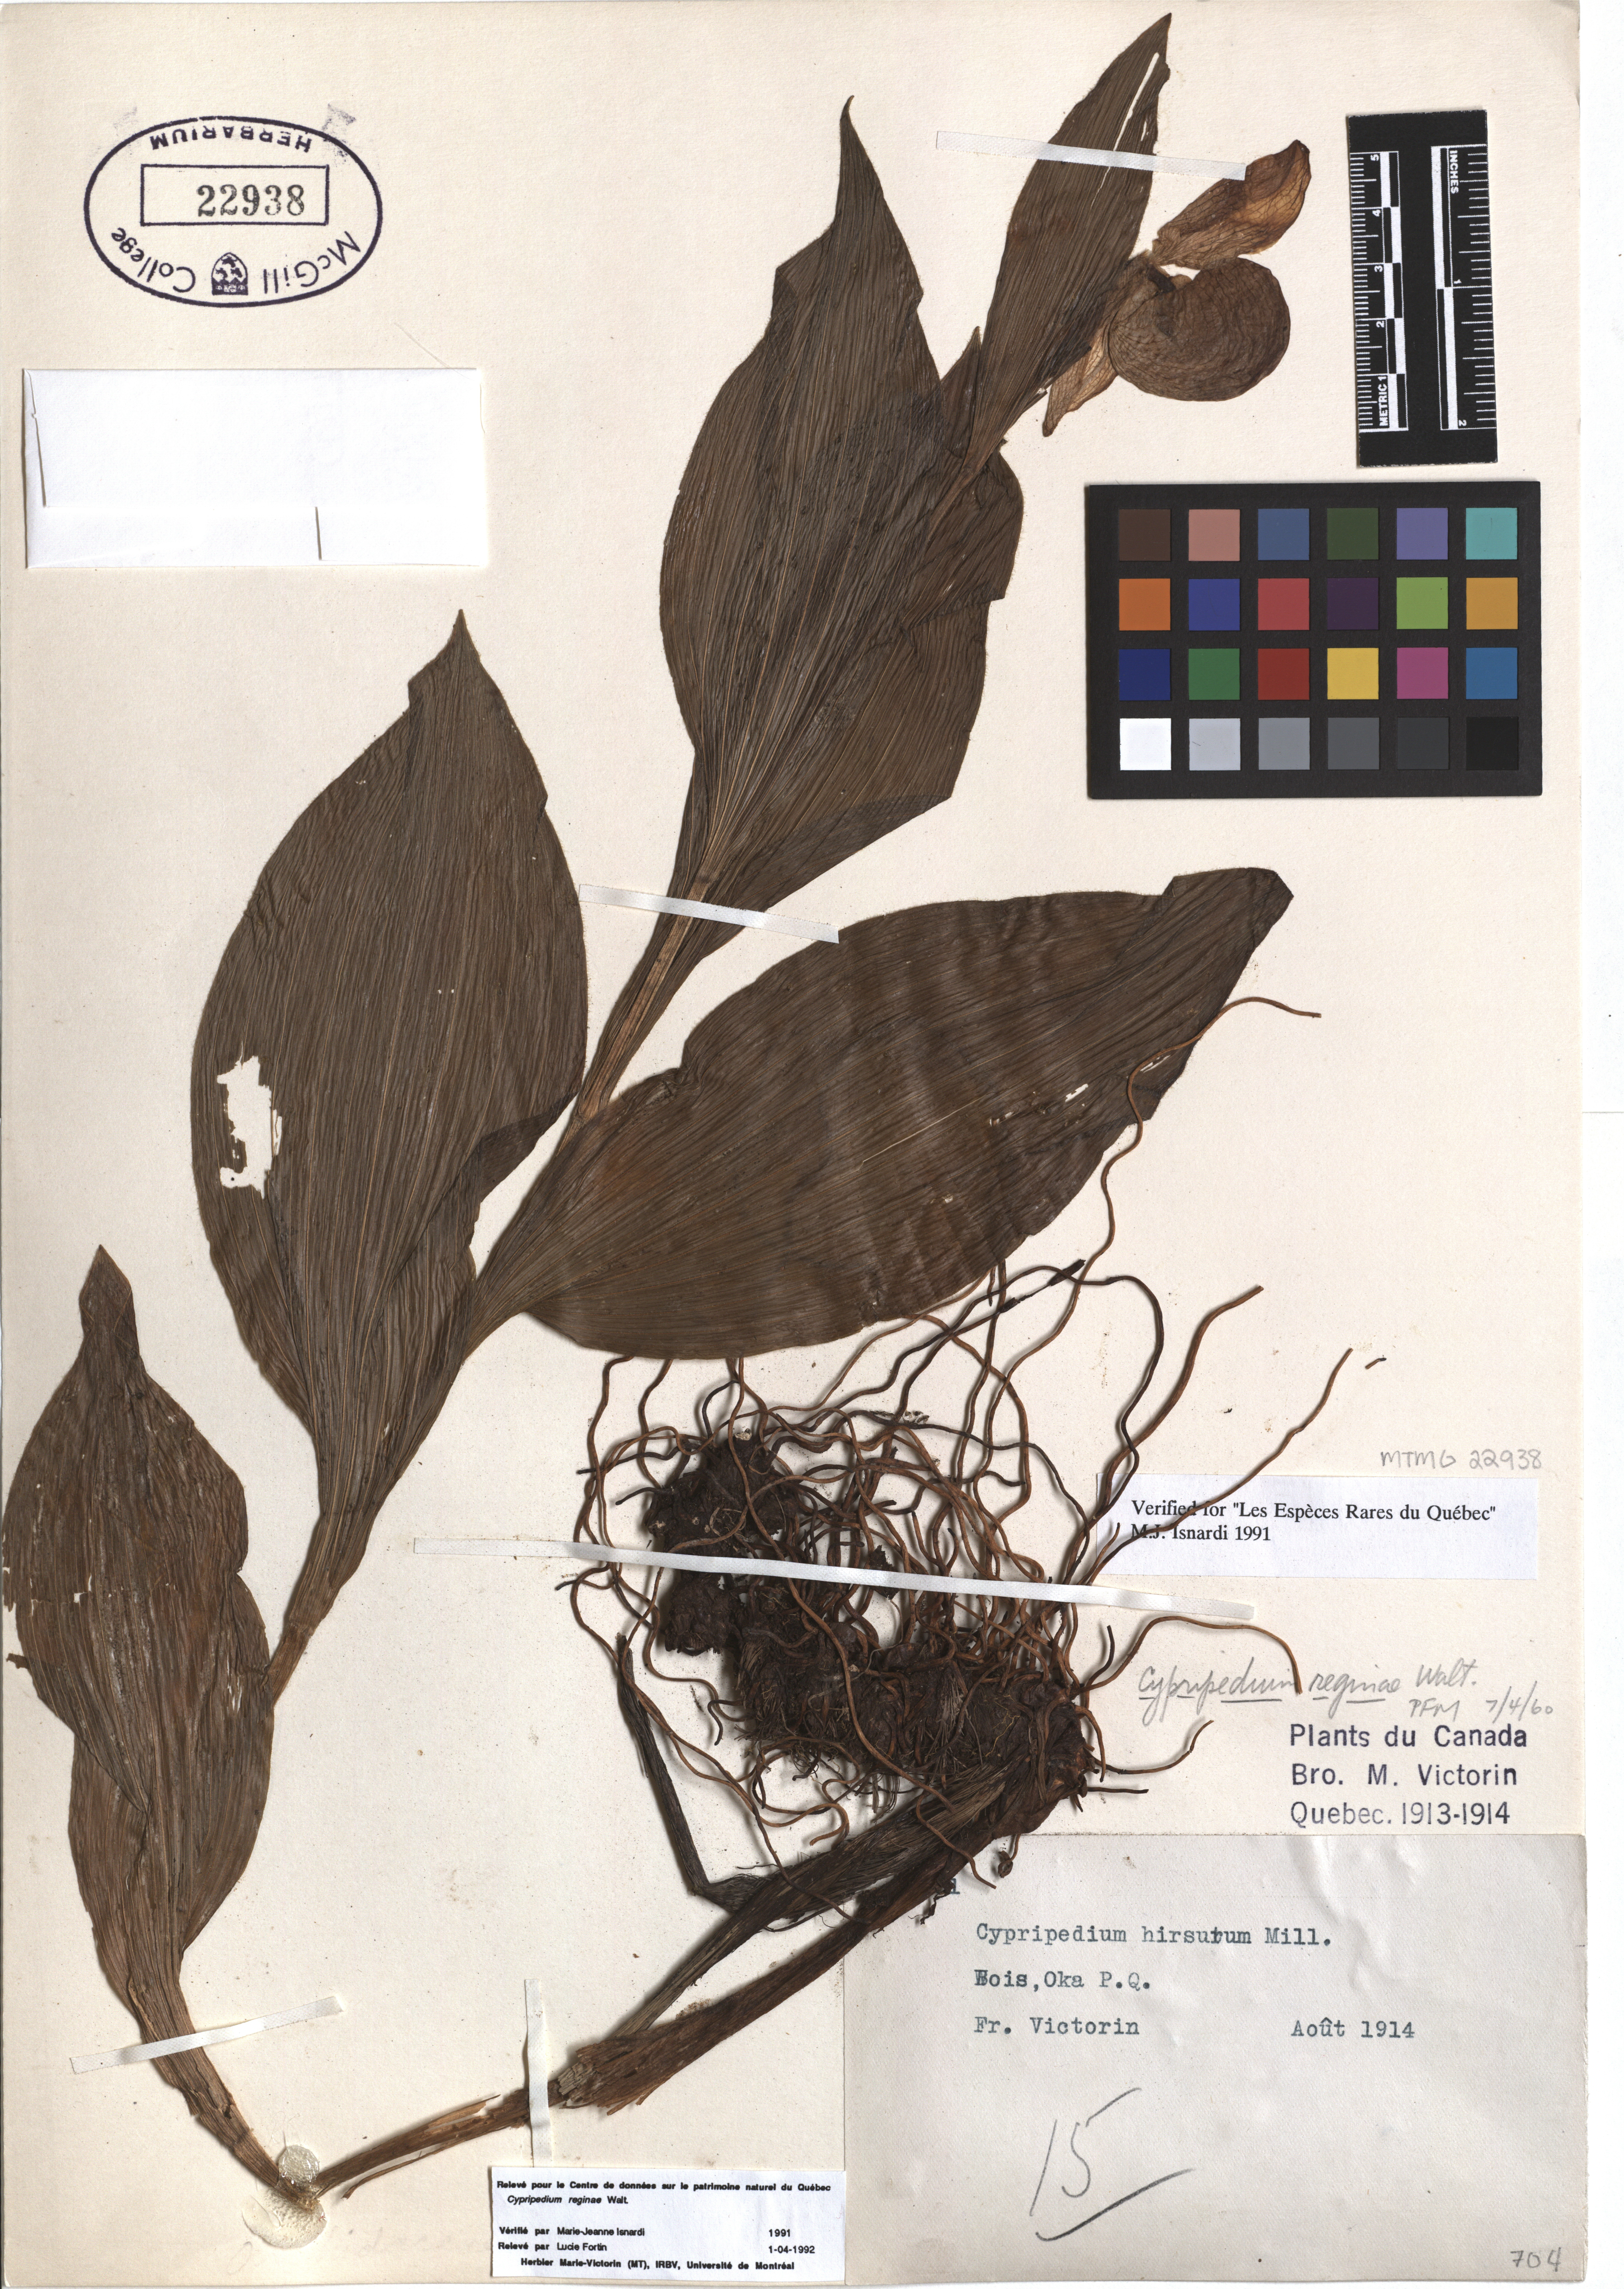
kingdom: Plantae
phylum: Tracheophyta
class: Liliopsida
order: Asparagales
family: Orchidaceae
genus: Cypripedium
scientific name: Cypripedium reginae
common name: Queen lady's-slipper
